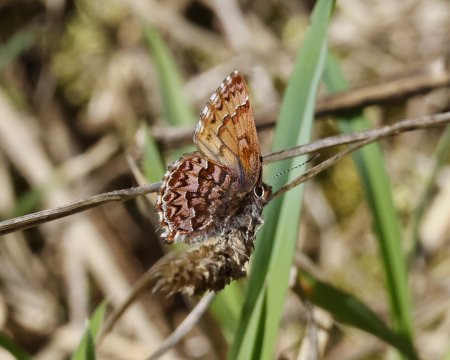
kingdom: Animalia
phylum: Arthropoda
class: Insecta
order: Lepidoptera
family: Lycaenidae
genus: Incisalia
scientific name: Incisalia eryphon
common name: Western Pine Elfin
